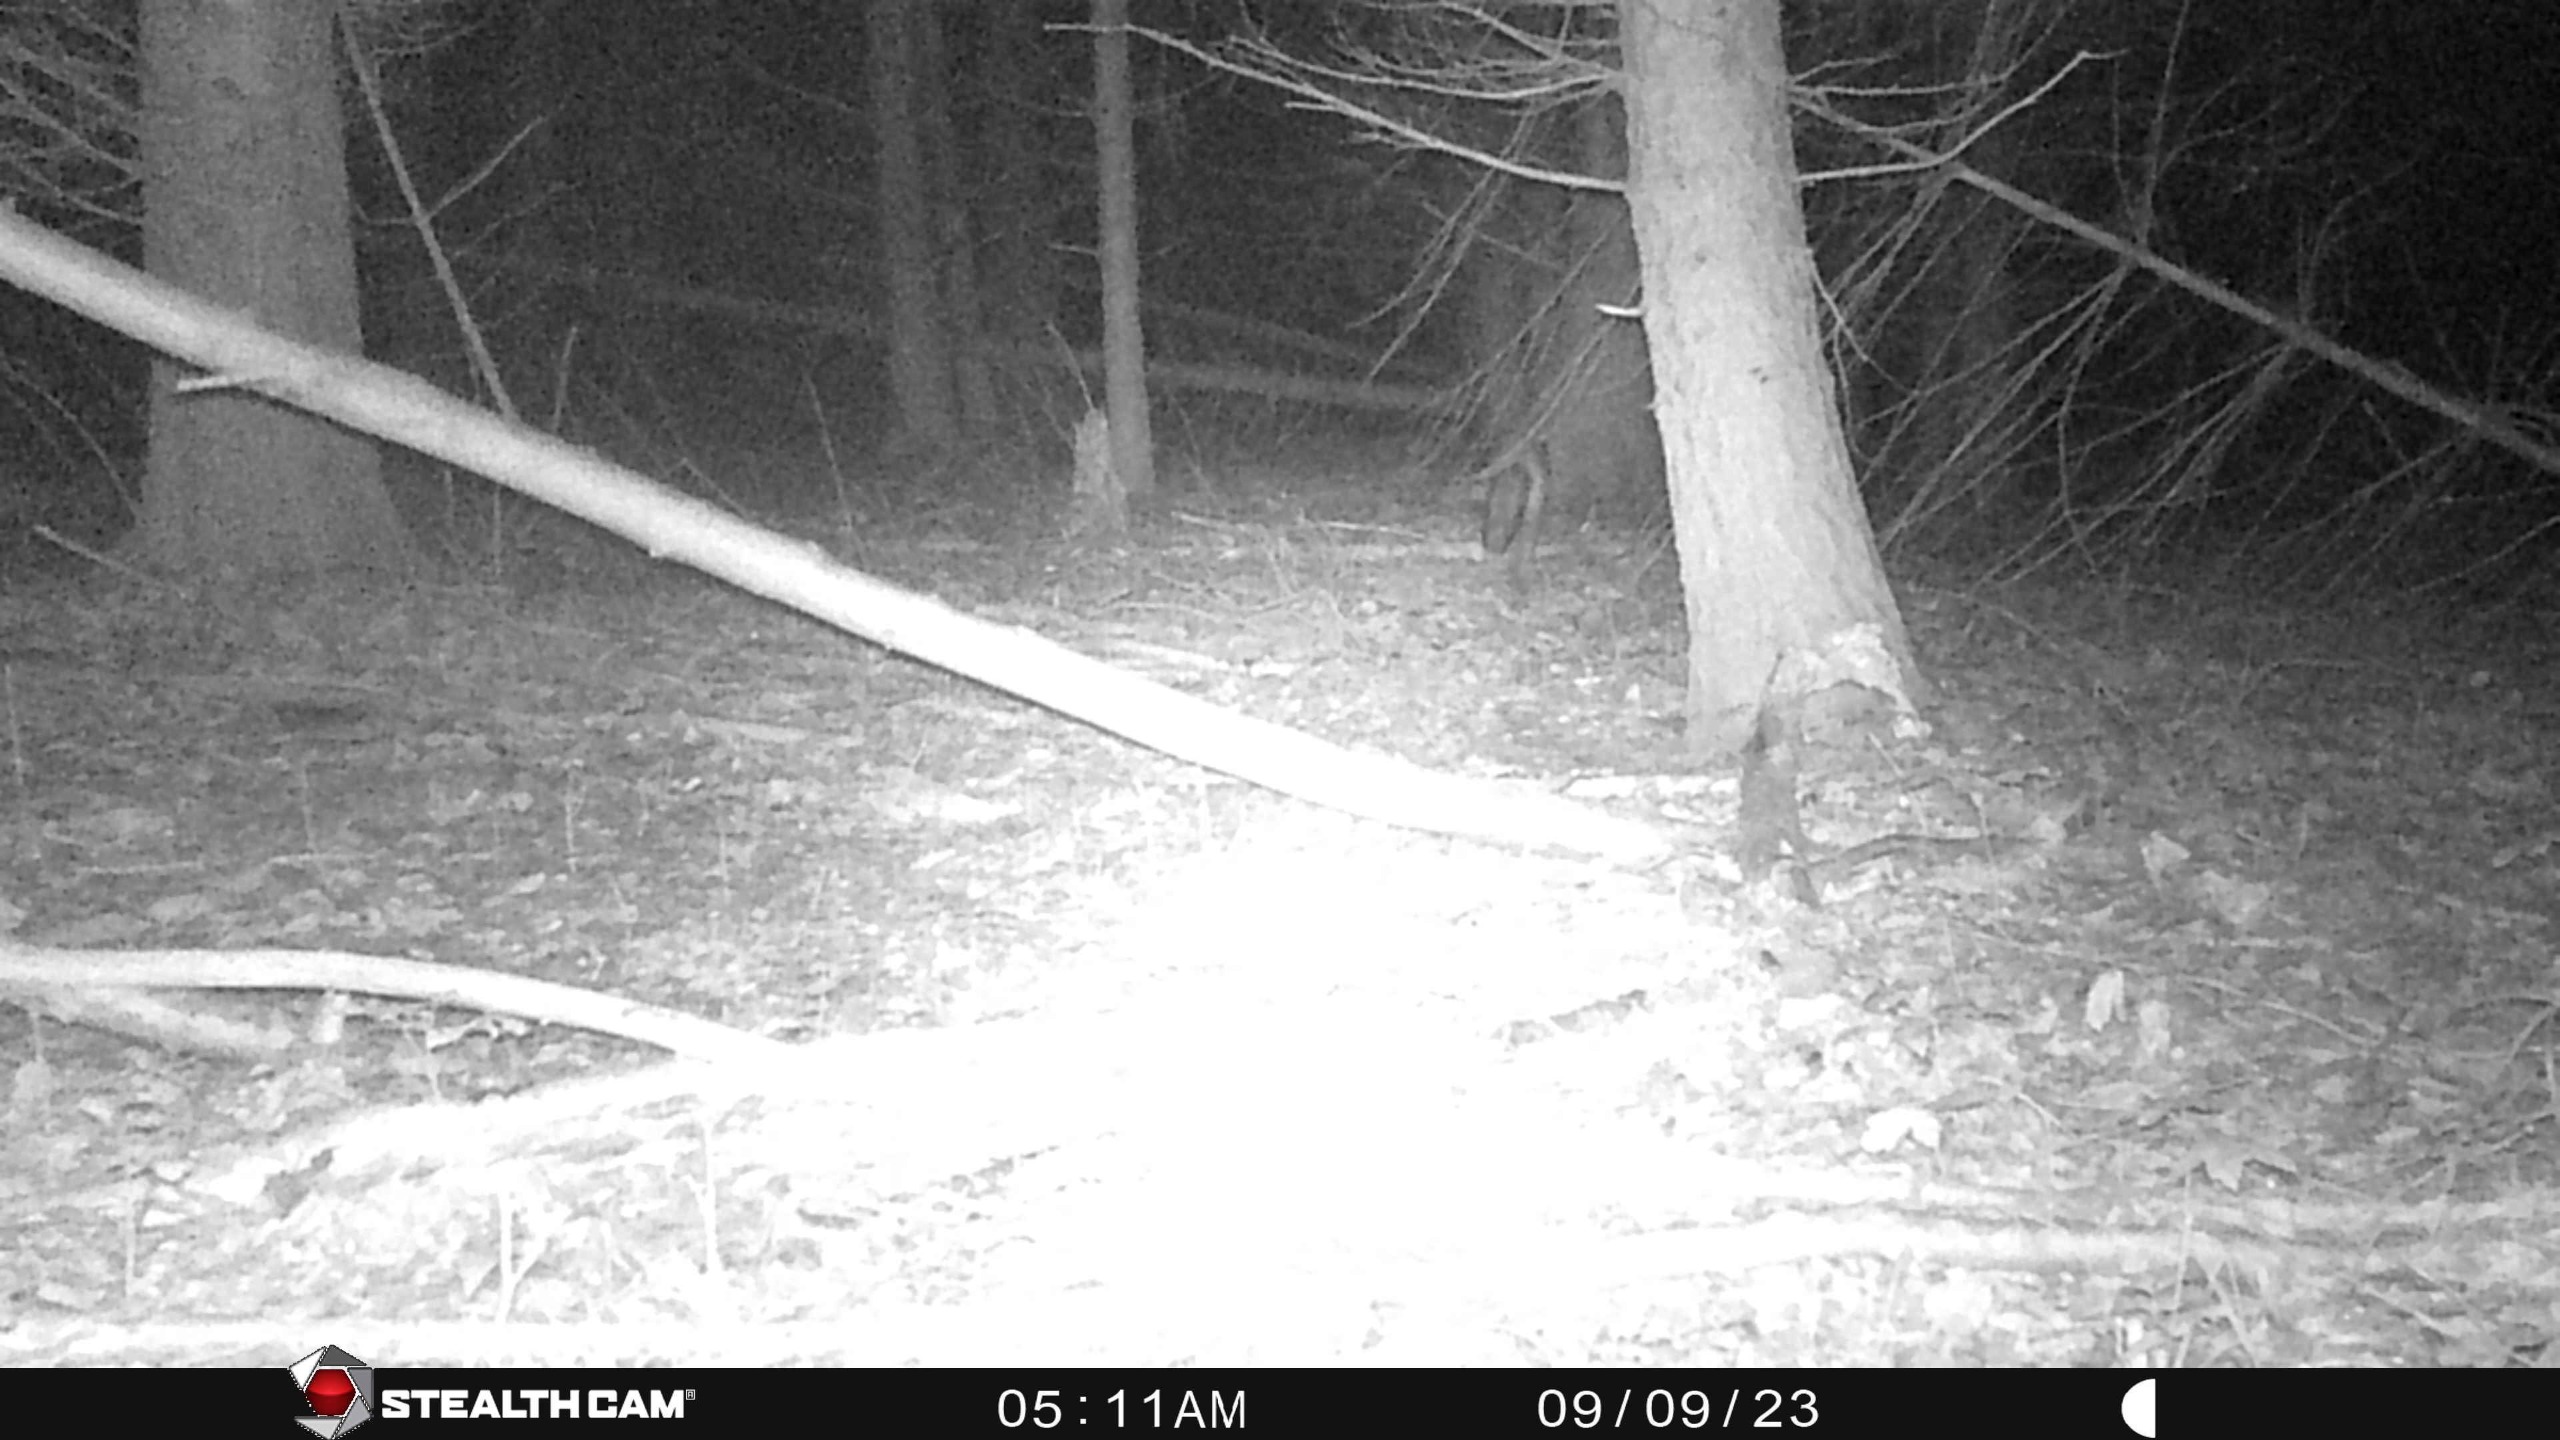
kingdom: Animalia
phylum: Chordata
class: Mammalia
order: Carnivora
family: Canidae
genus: Vulpes
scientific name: Vulpes vulpes
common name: Ræv
